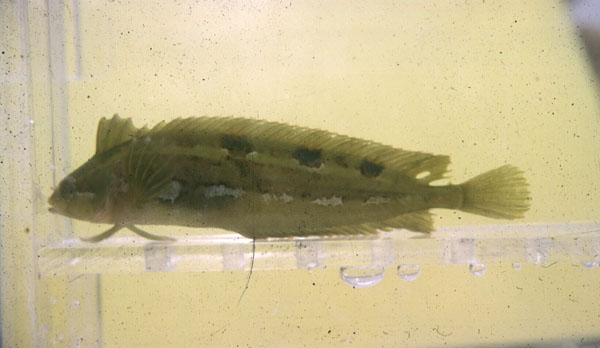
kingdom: Animalia
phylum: Chordata
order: Perciformes
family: Clinidae
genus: Pavoclinus
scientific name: Pavoclinus graminis
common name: Grass klipfish
